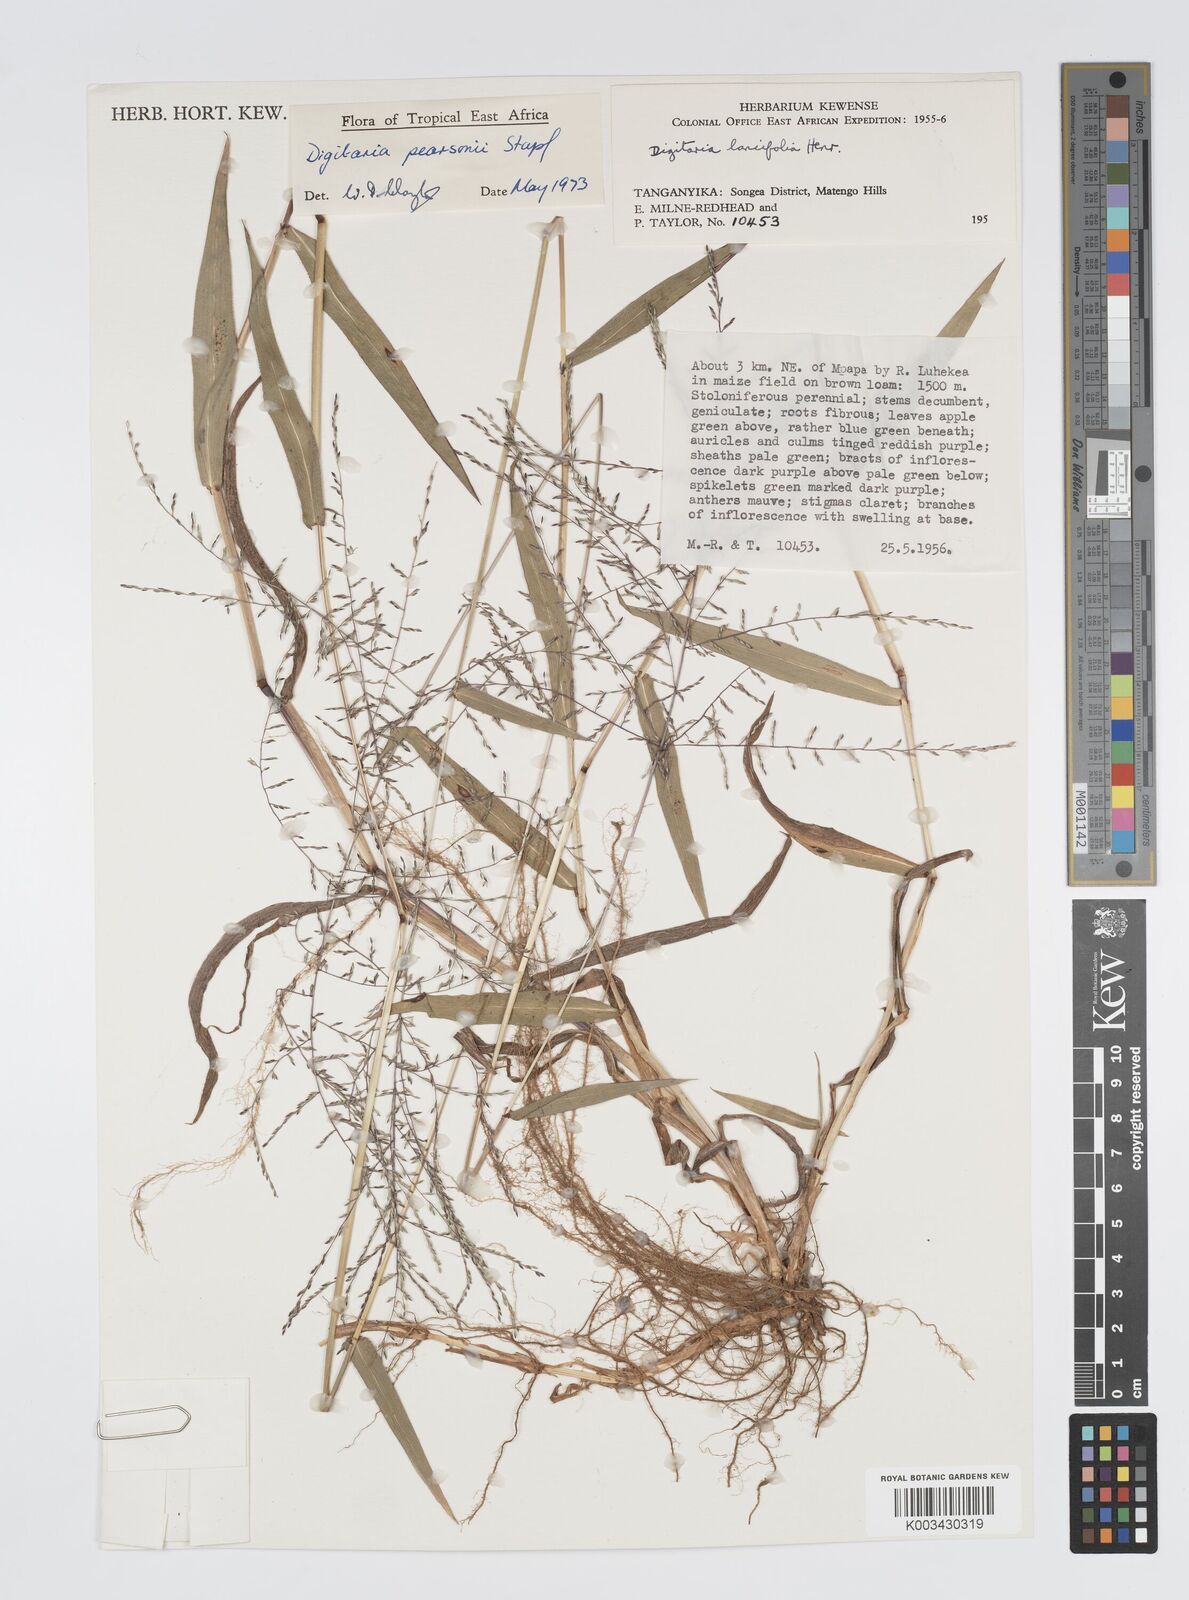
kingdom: Plantae
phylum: Tracheophyta
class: Liliopsida
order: Poales
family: Poaceae
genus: Digitaria
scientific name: Digitaria pearsonii
